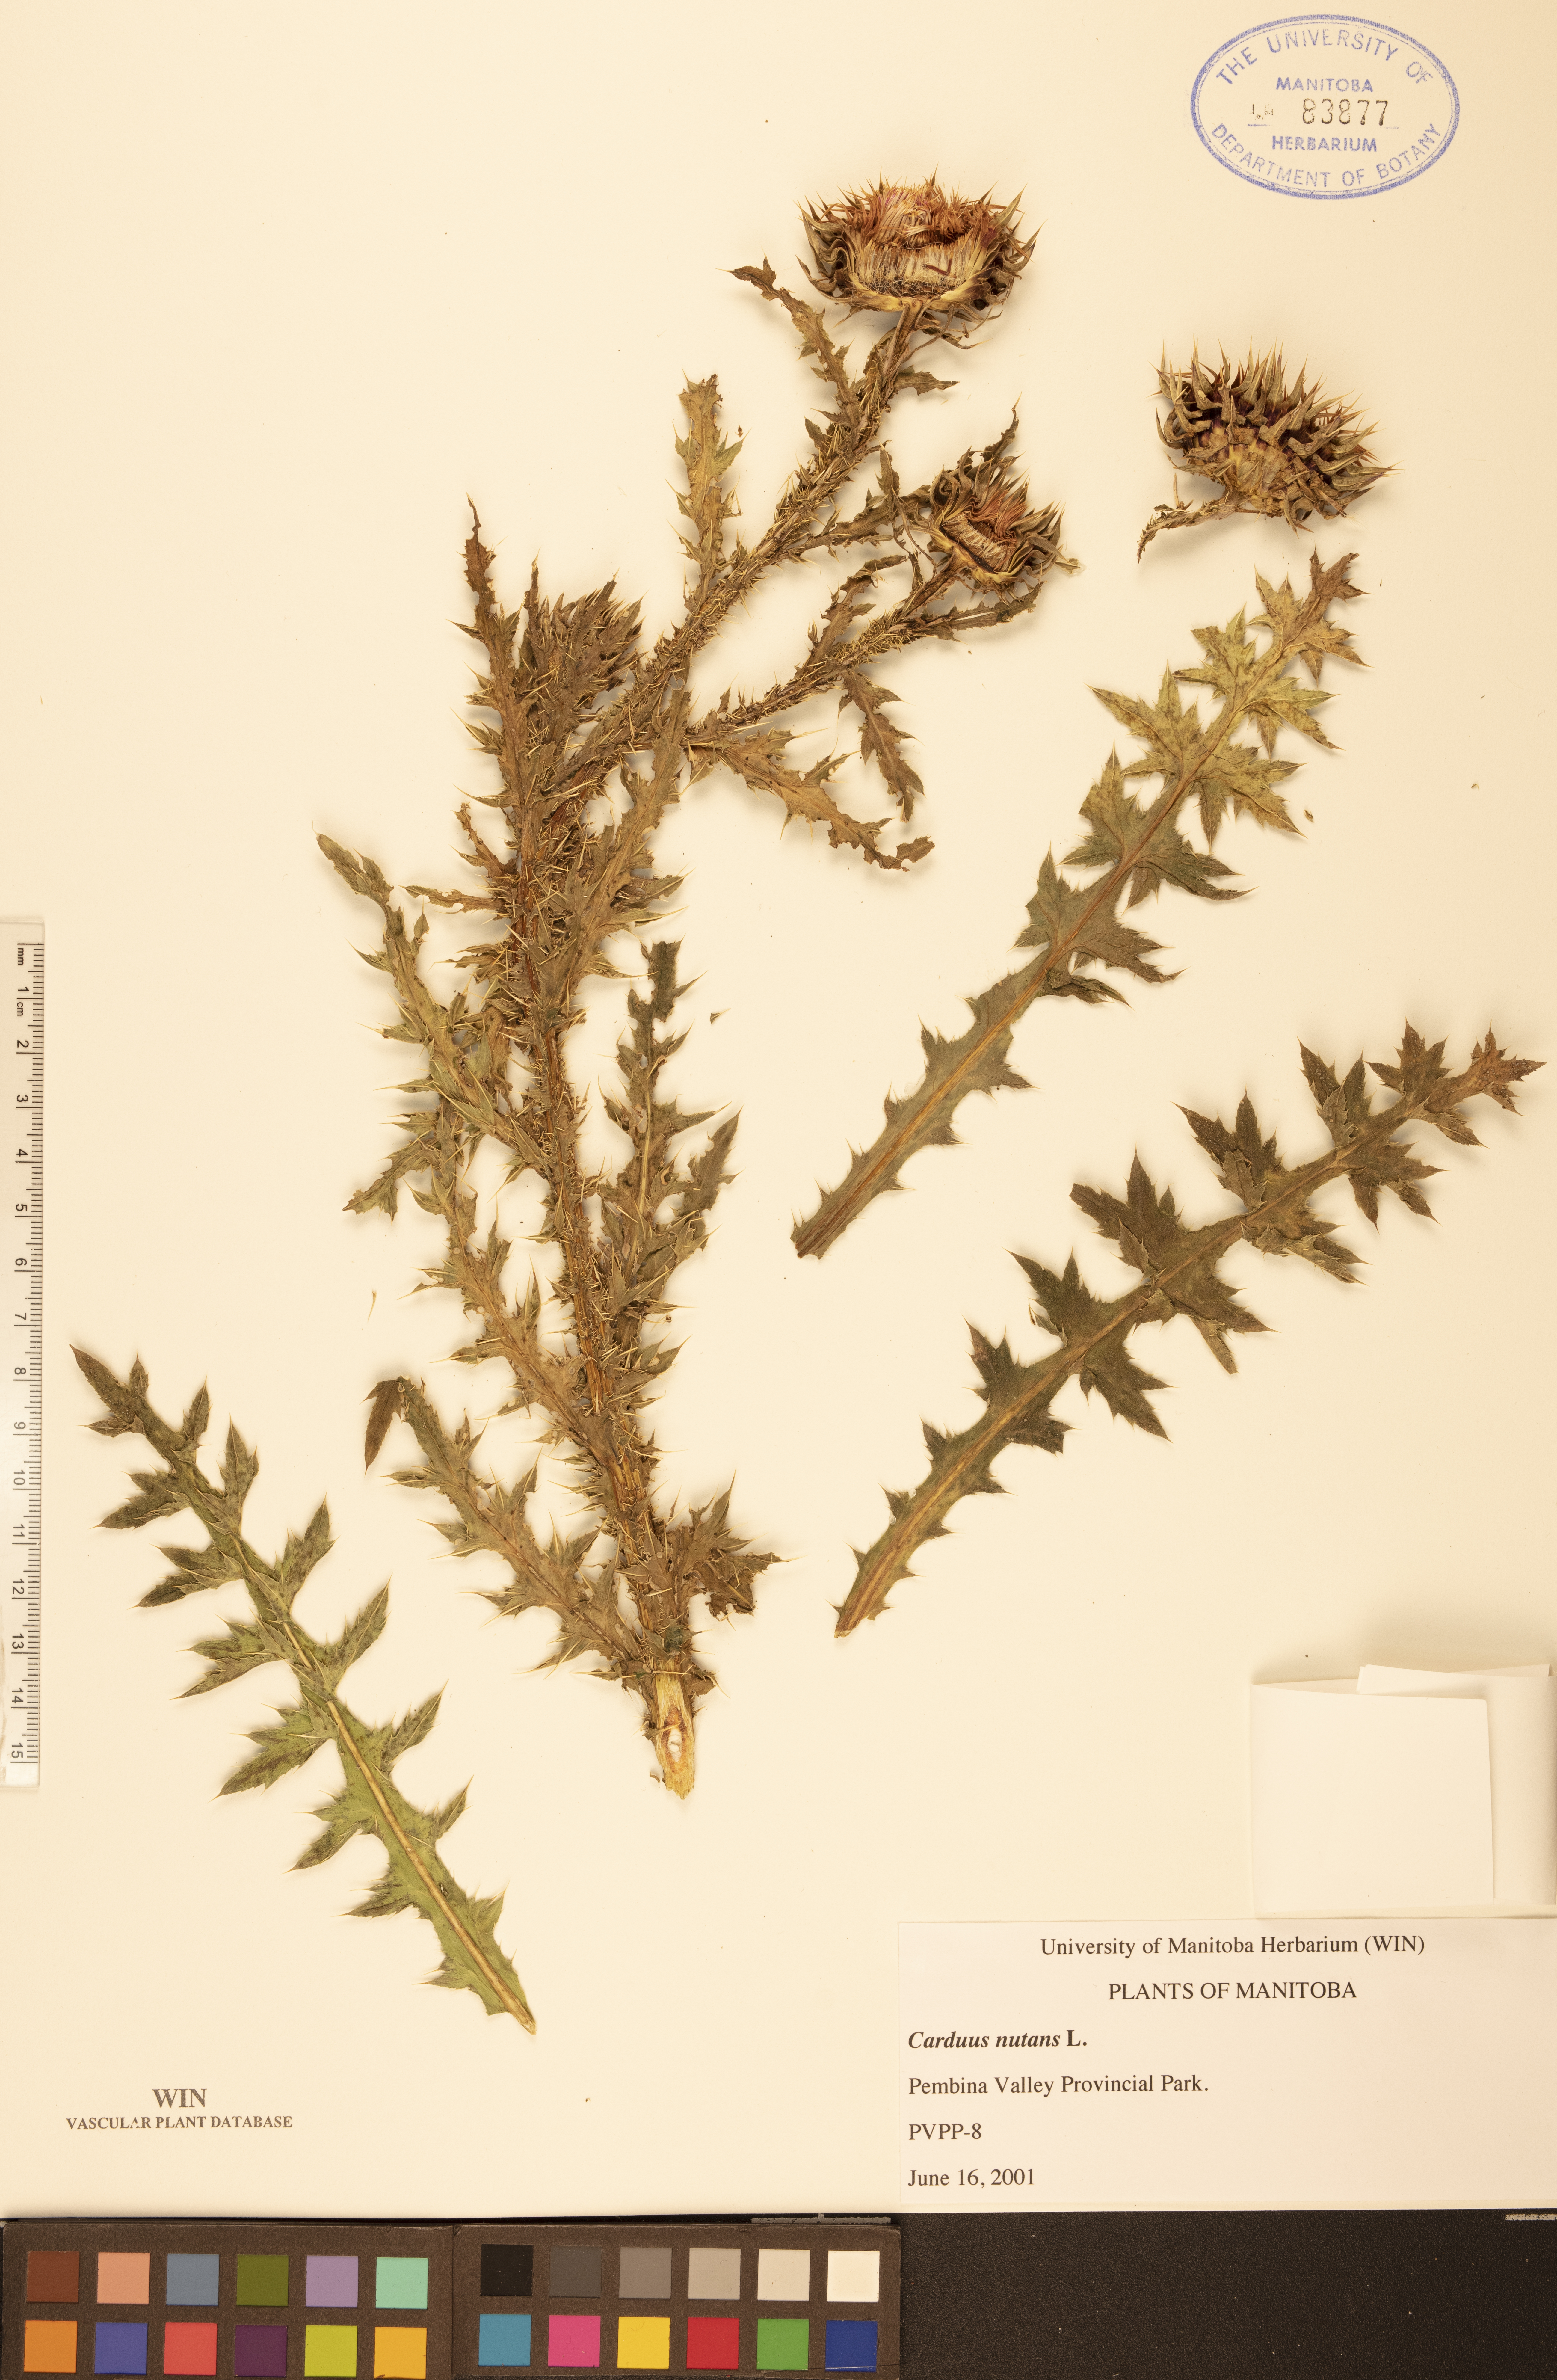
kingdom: Plantae
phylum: Tracheophyta
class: Magnoliopsida
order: Asterales
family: Asteraceae
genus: Carduus
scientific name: Carduus nutans
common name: Musk thistle
